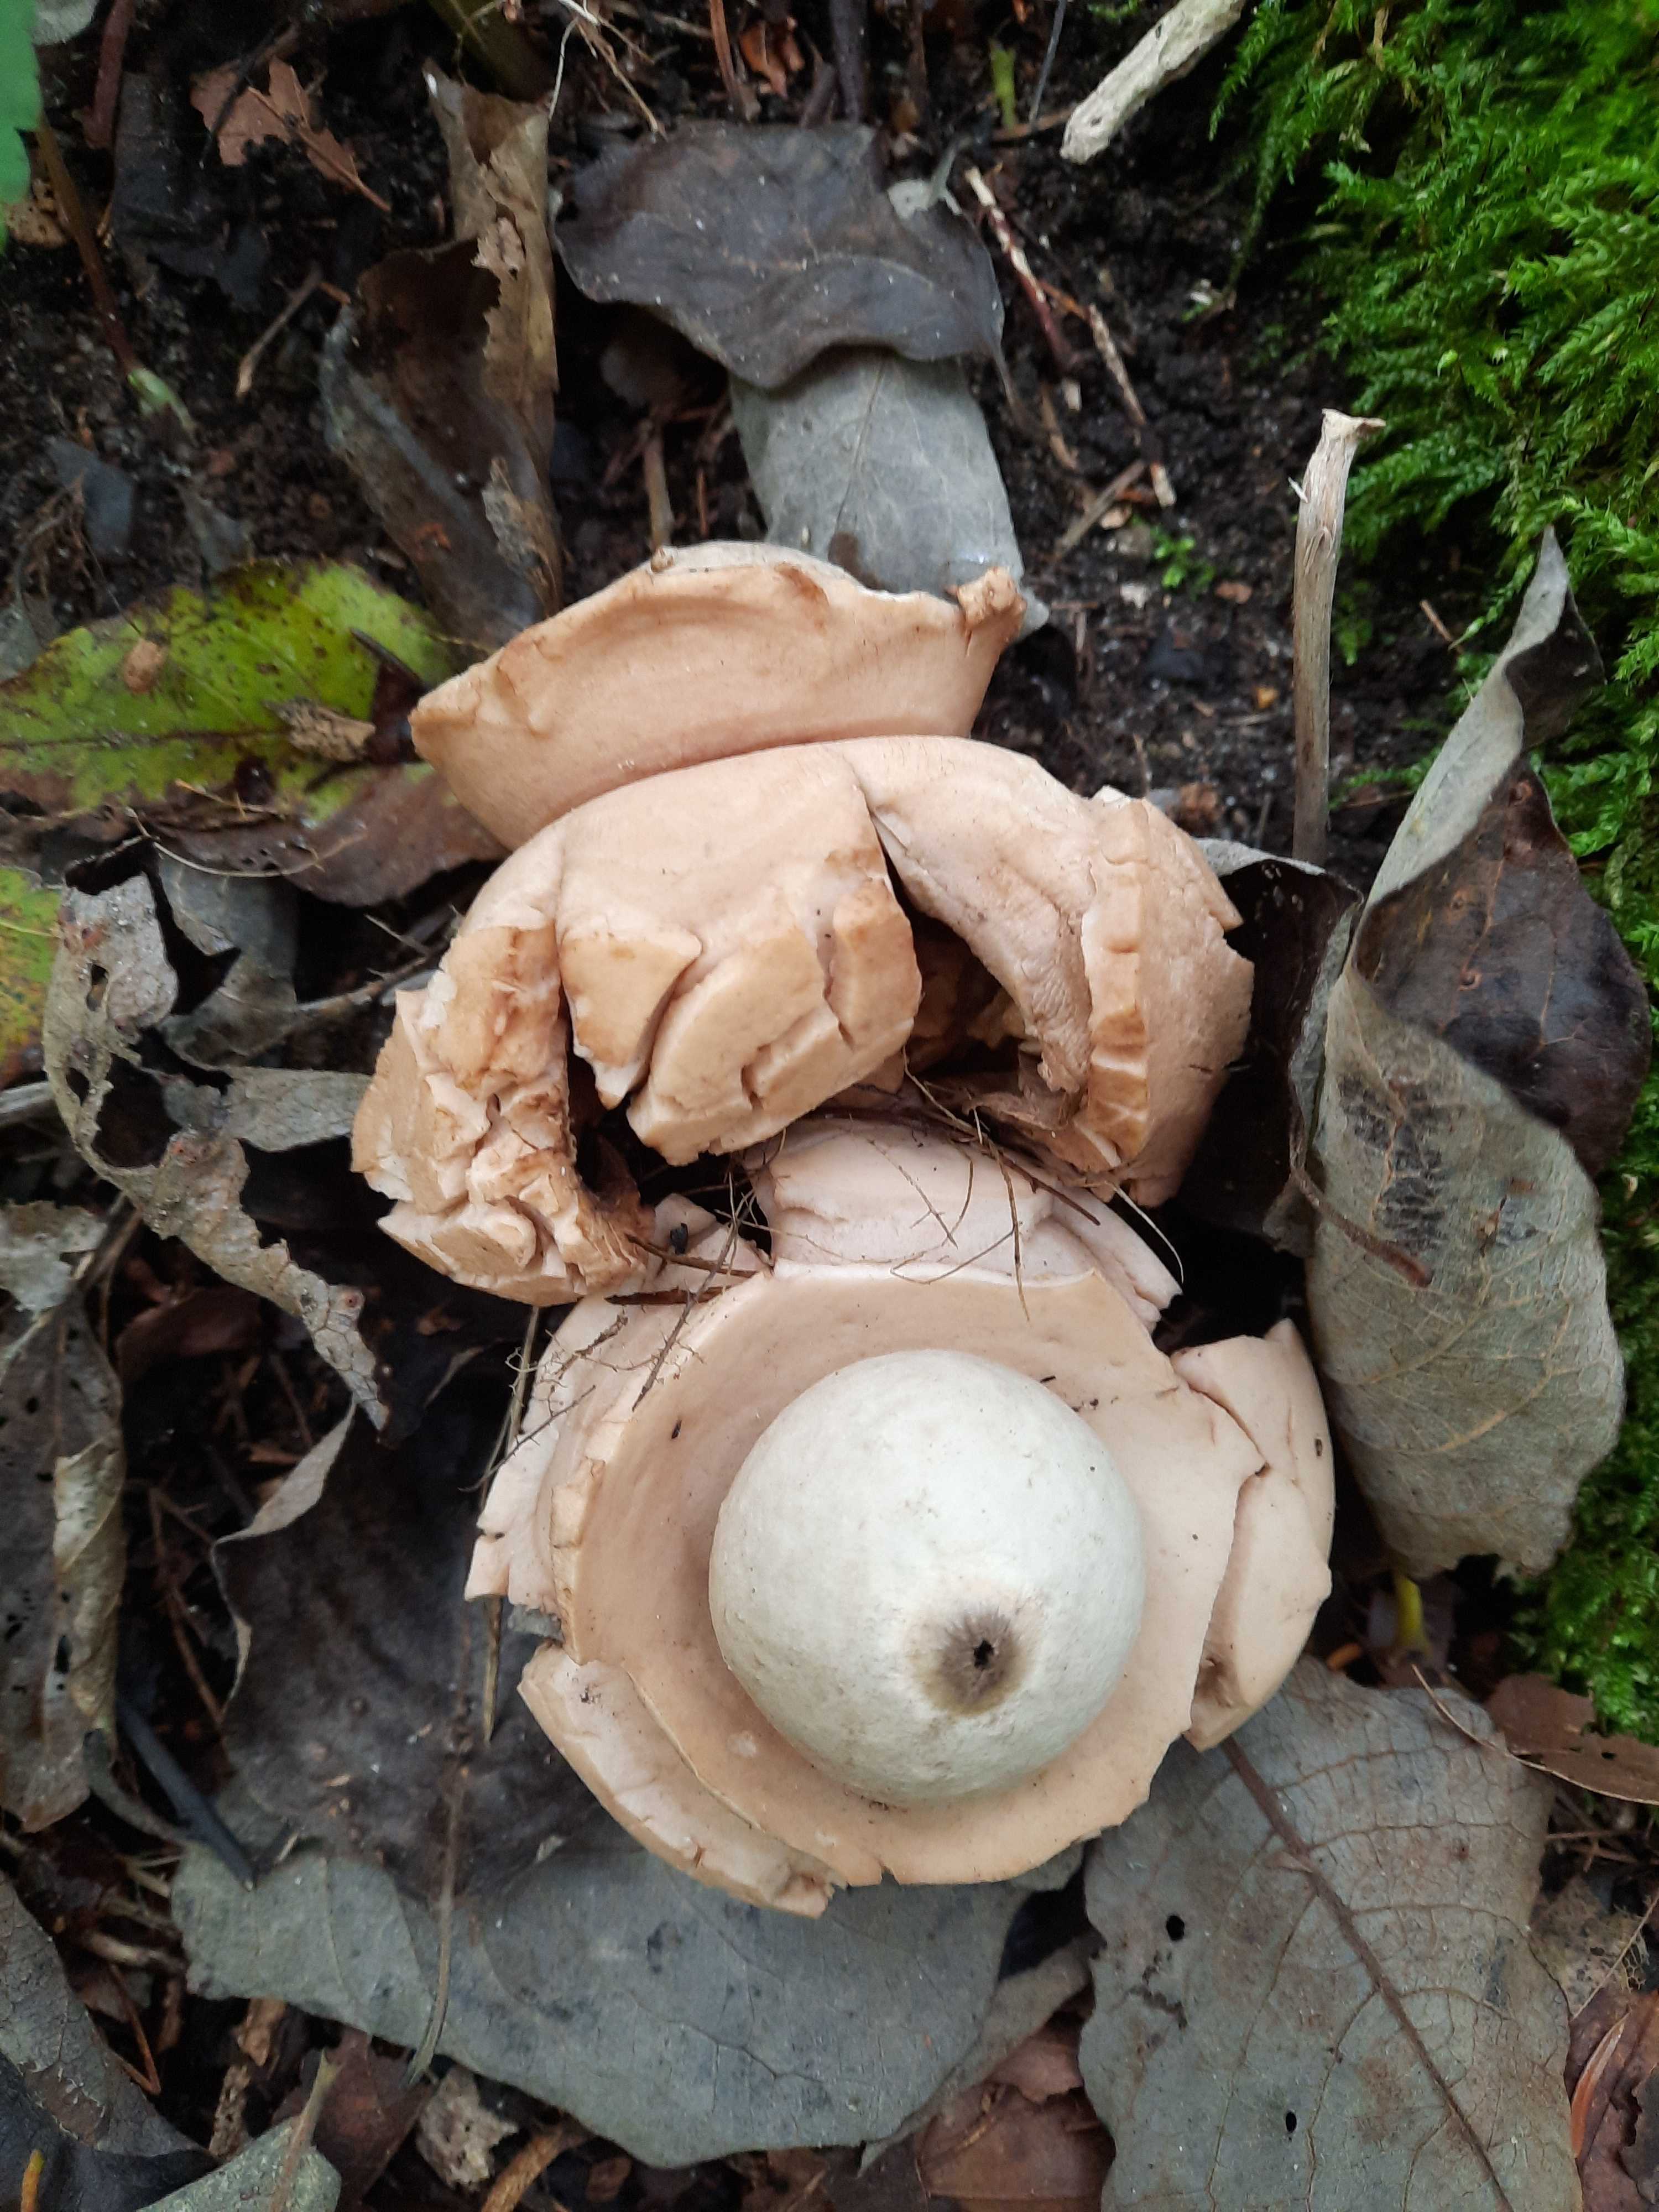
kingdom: Fungi
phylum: Basidiomycota
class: Agaricomycetes
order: Geastrales
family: Geastraceae
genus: Geastrum
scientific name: Geastrum michelianum
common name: kødet stjernebold
